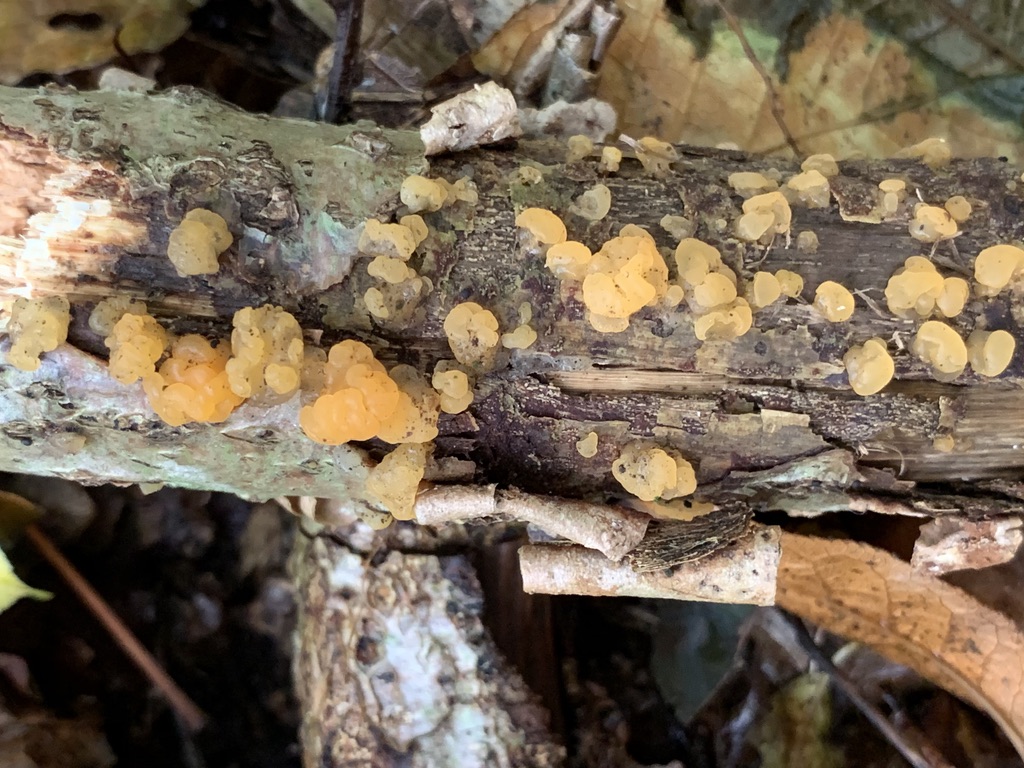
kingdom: Fungi
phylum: Basidiomycota
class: Dacrymycetes
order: Dacrymycetales
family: Dacrymycetaceae
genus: Dacrymyces
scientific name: Dacrymyces lacrymalis
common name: rynket tåresvamp
